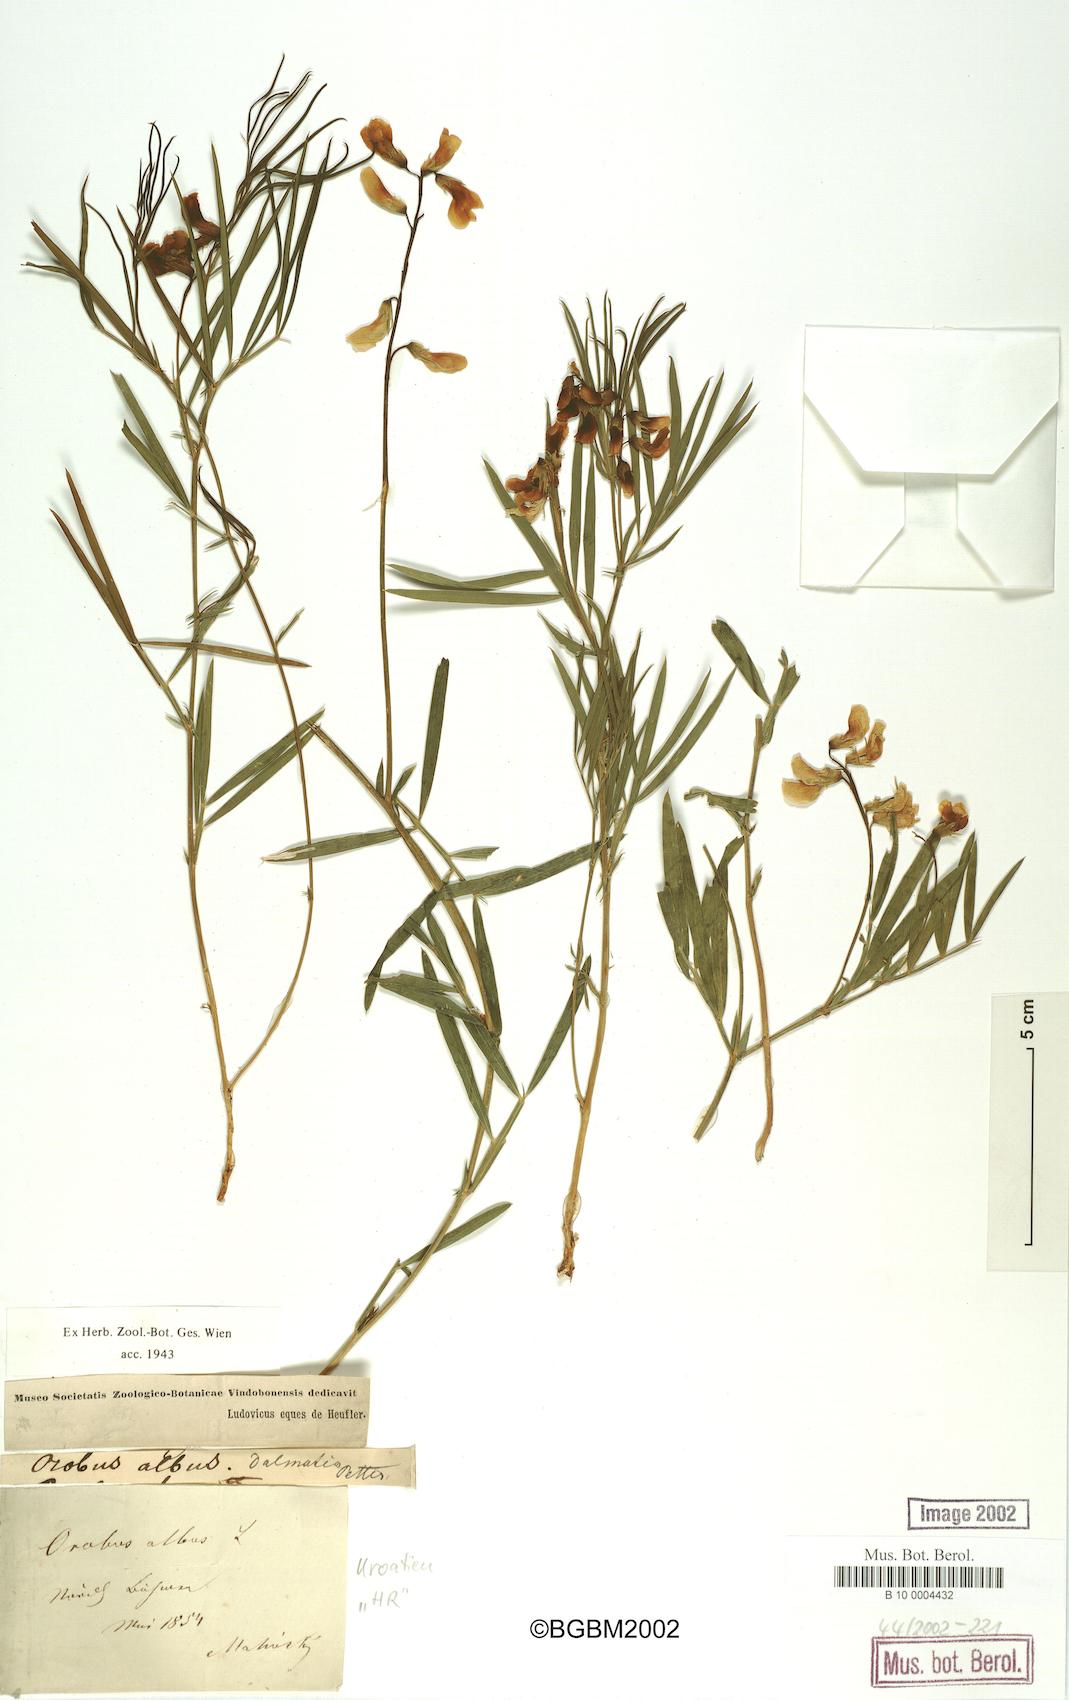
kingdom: Plantae
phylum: Tracheophyta
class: Magnoliopsida
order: Fabales
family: Fabaceae
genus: Lathyrus
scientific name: Lathyrus pannonicus
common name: Pea
